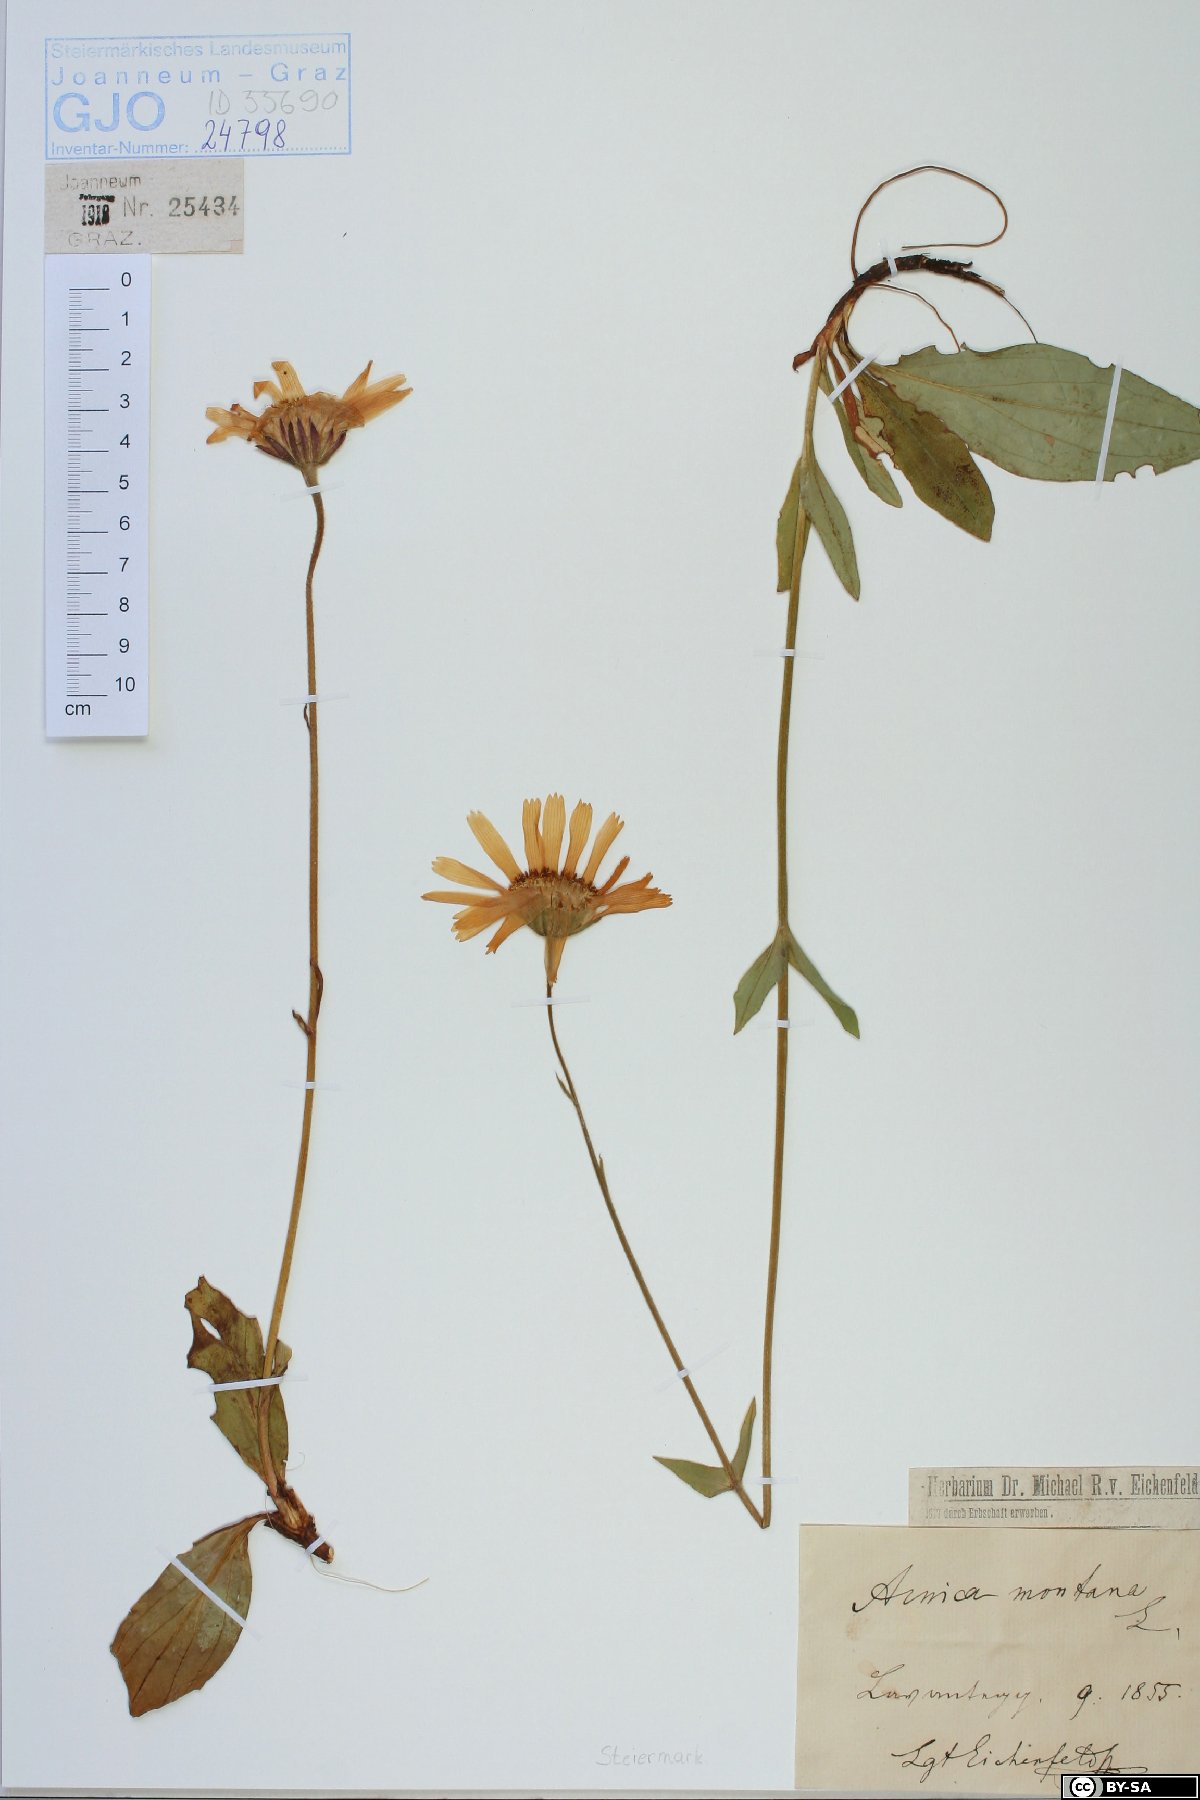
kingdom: Plantae
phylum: Tracheophyta
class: Magnoliopsida
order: Asterales
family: Asteraceae
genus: Arnica
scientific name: Arnica montana
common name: Leopard's bane
